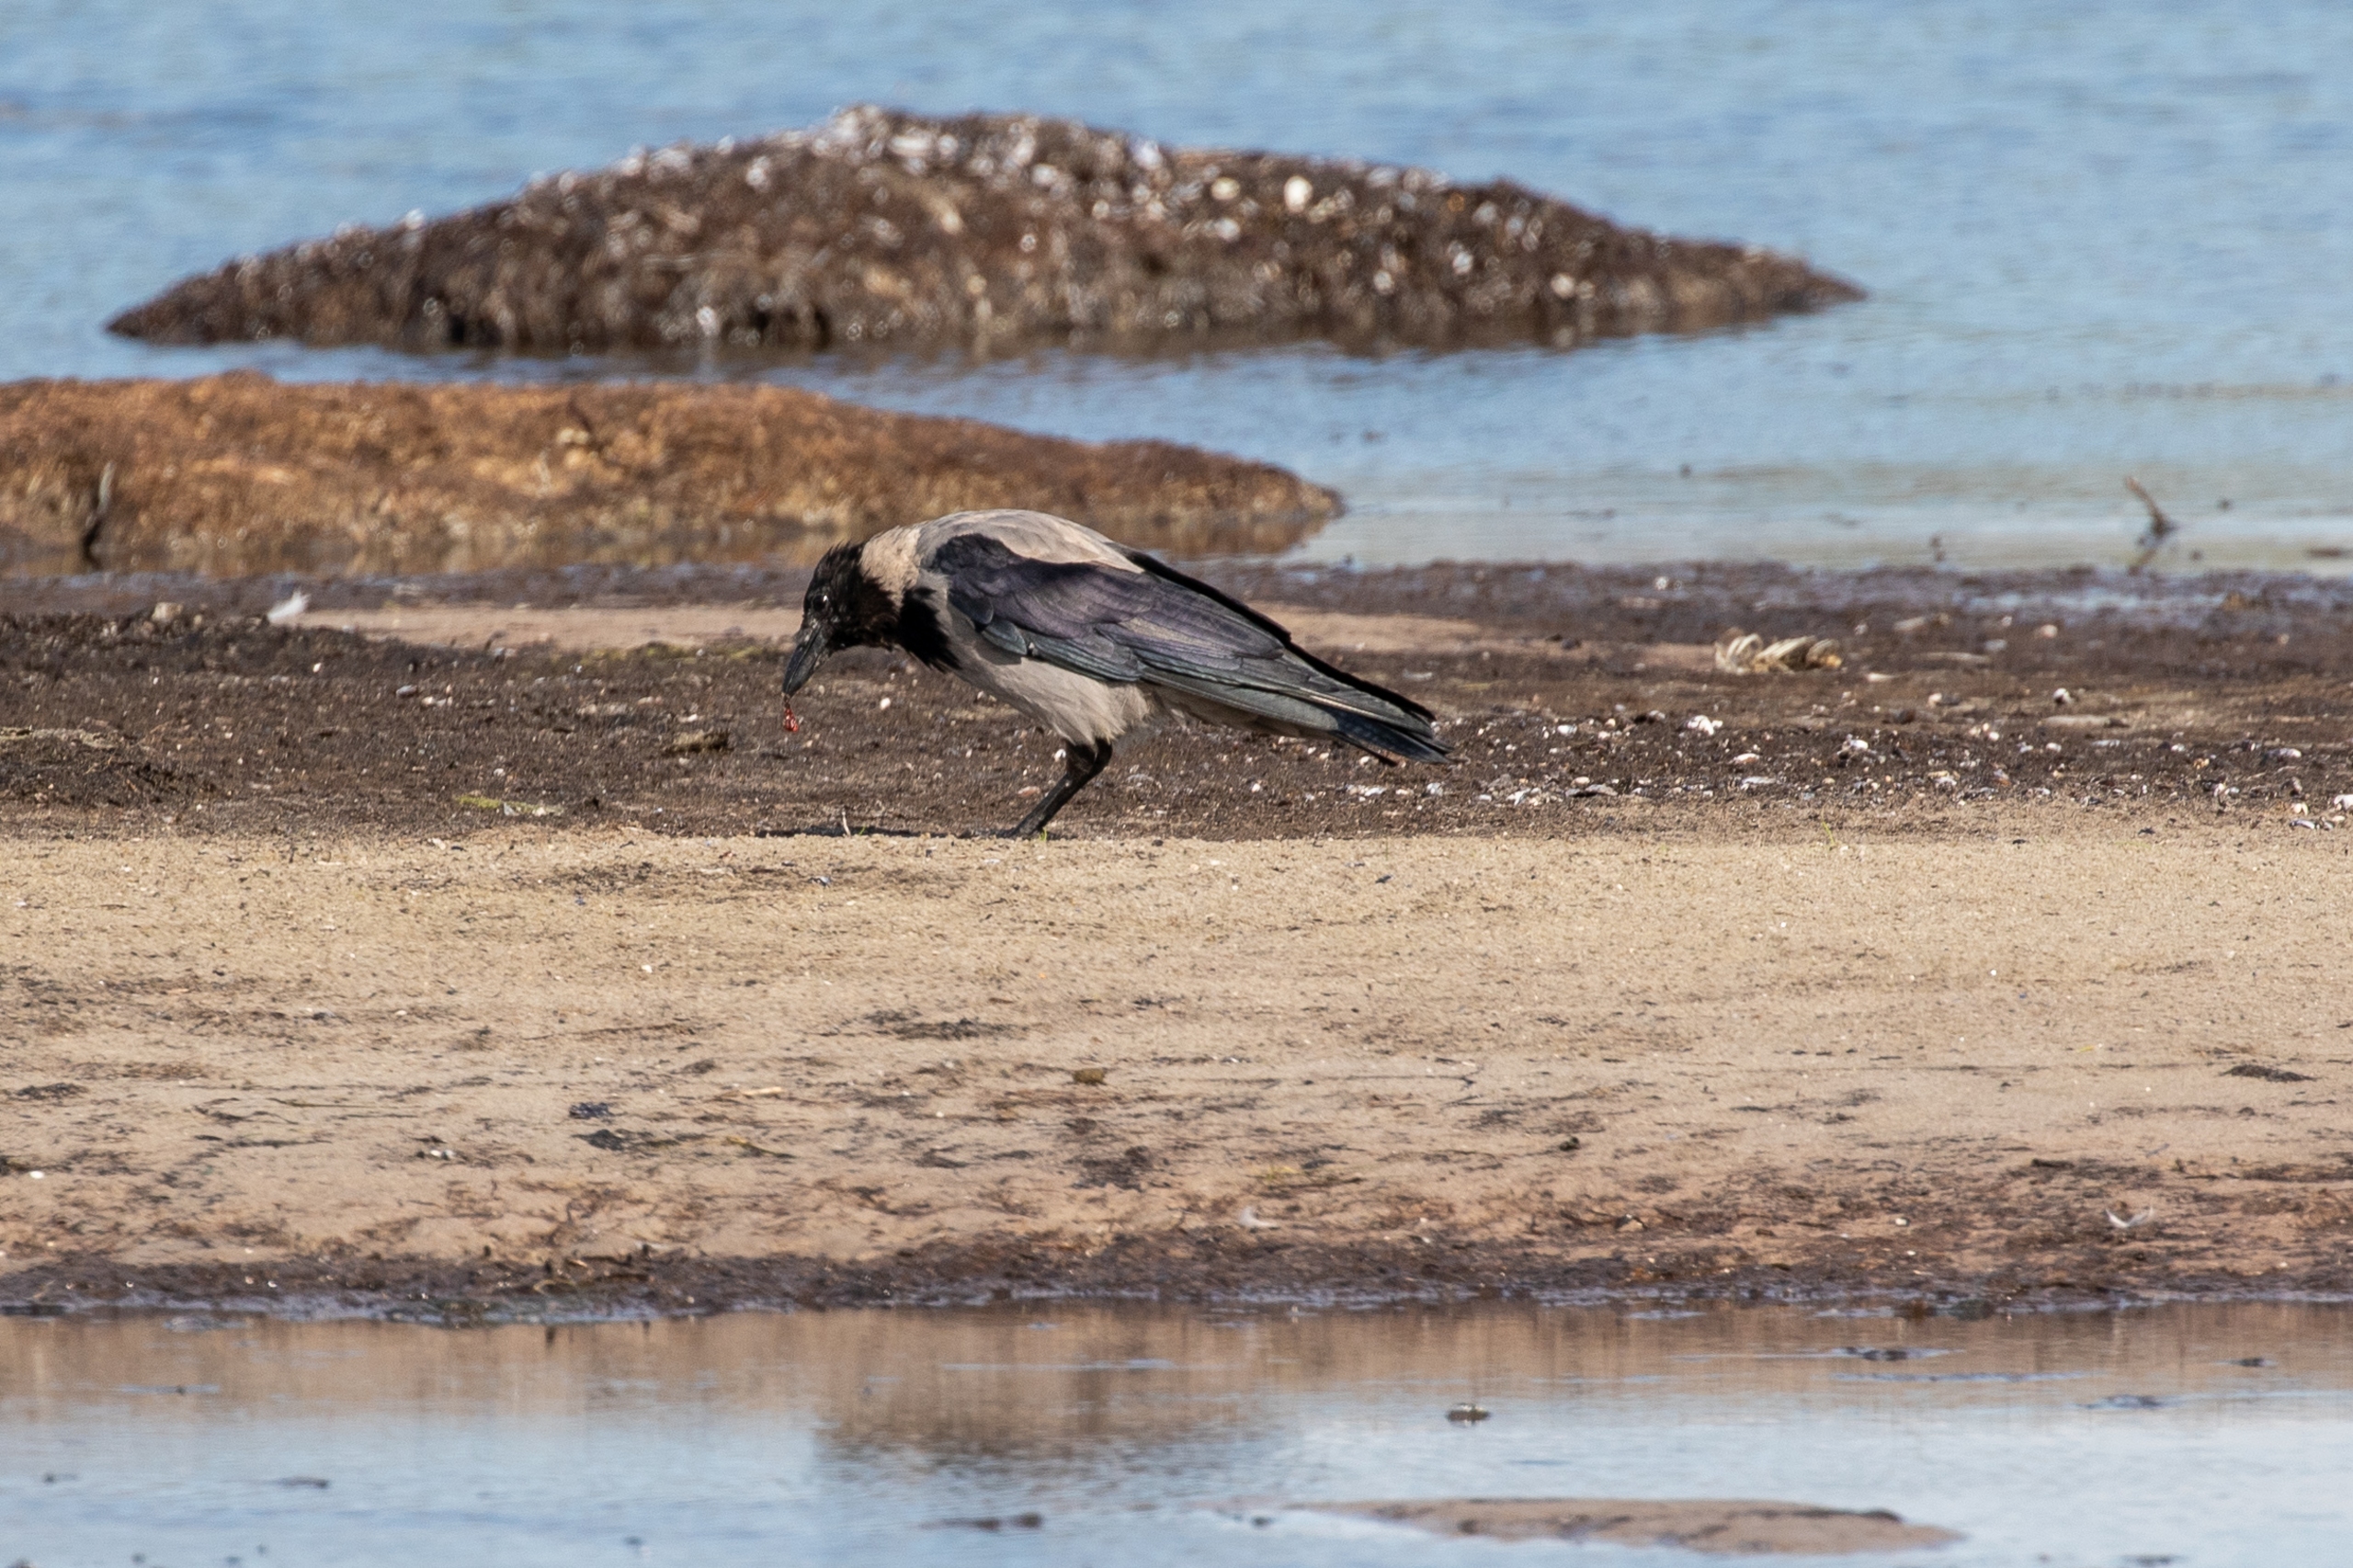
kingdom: Animalia
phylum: Chordata
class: Aves
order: Passeriformes
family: Corvidae
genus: Corvus
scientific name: Corvus cornix
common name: Gråkrage
